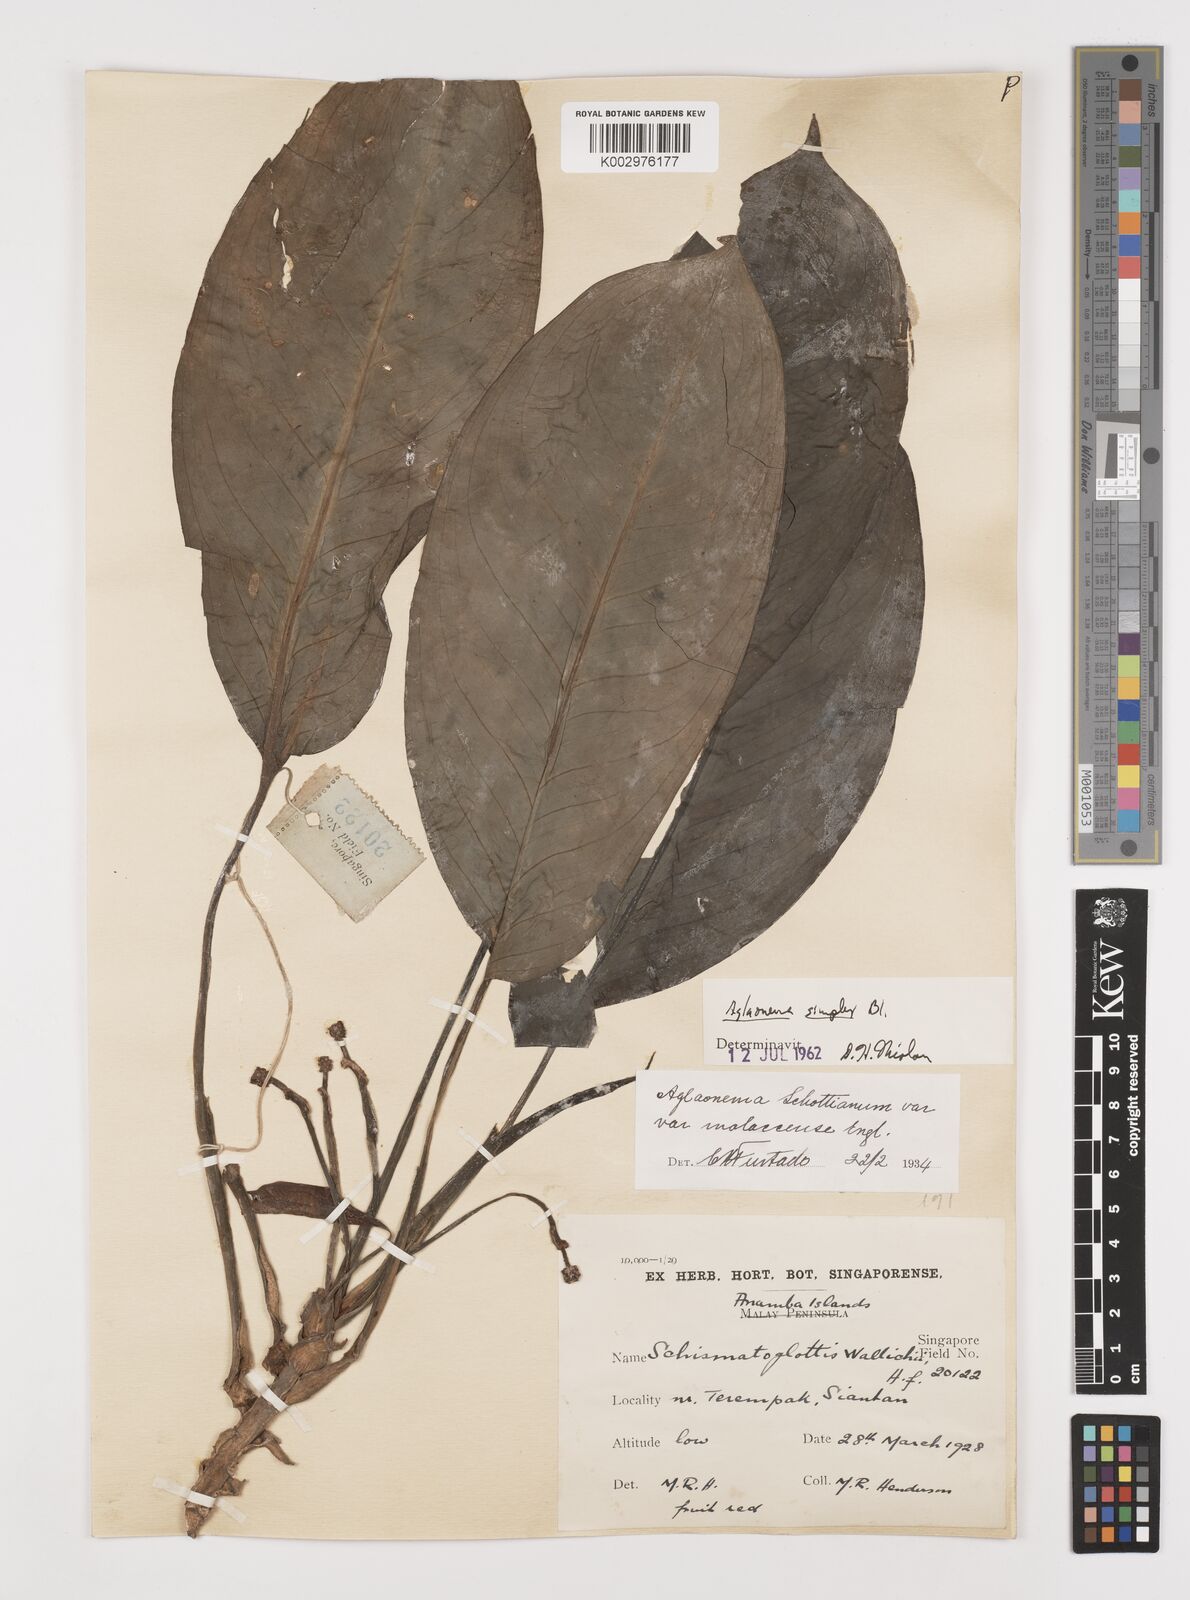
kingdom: Plantae
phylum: Tracheophyta
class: Liliopsida
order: Alismatales
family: Araceae
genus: Aglaonema
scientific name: Aglaonema simplex
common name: Malayan-sword
